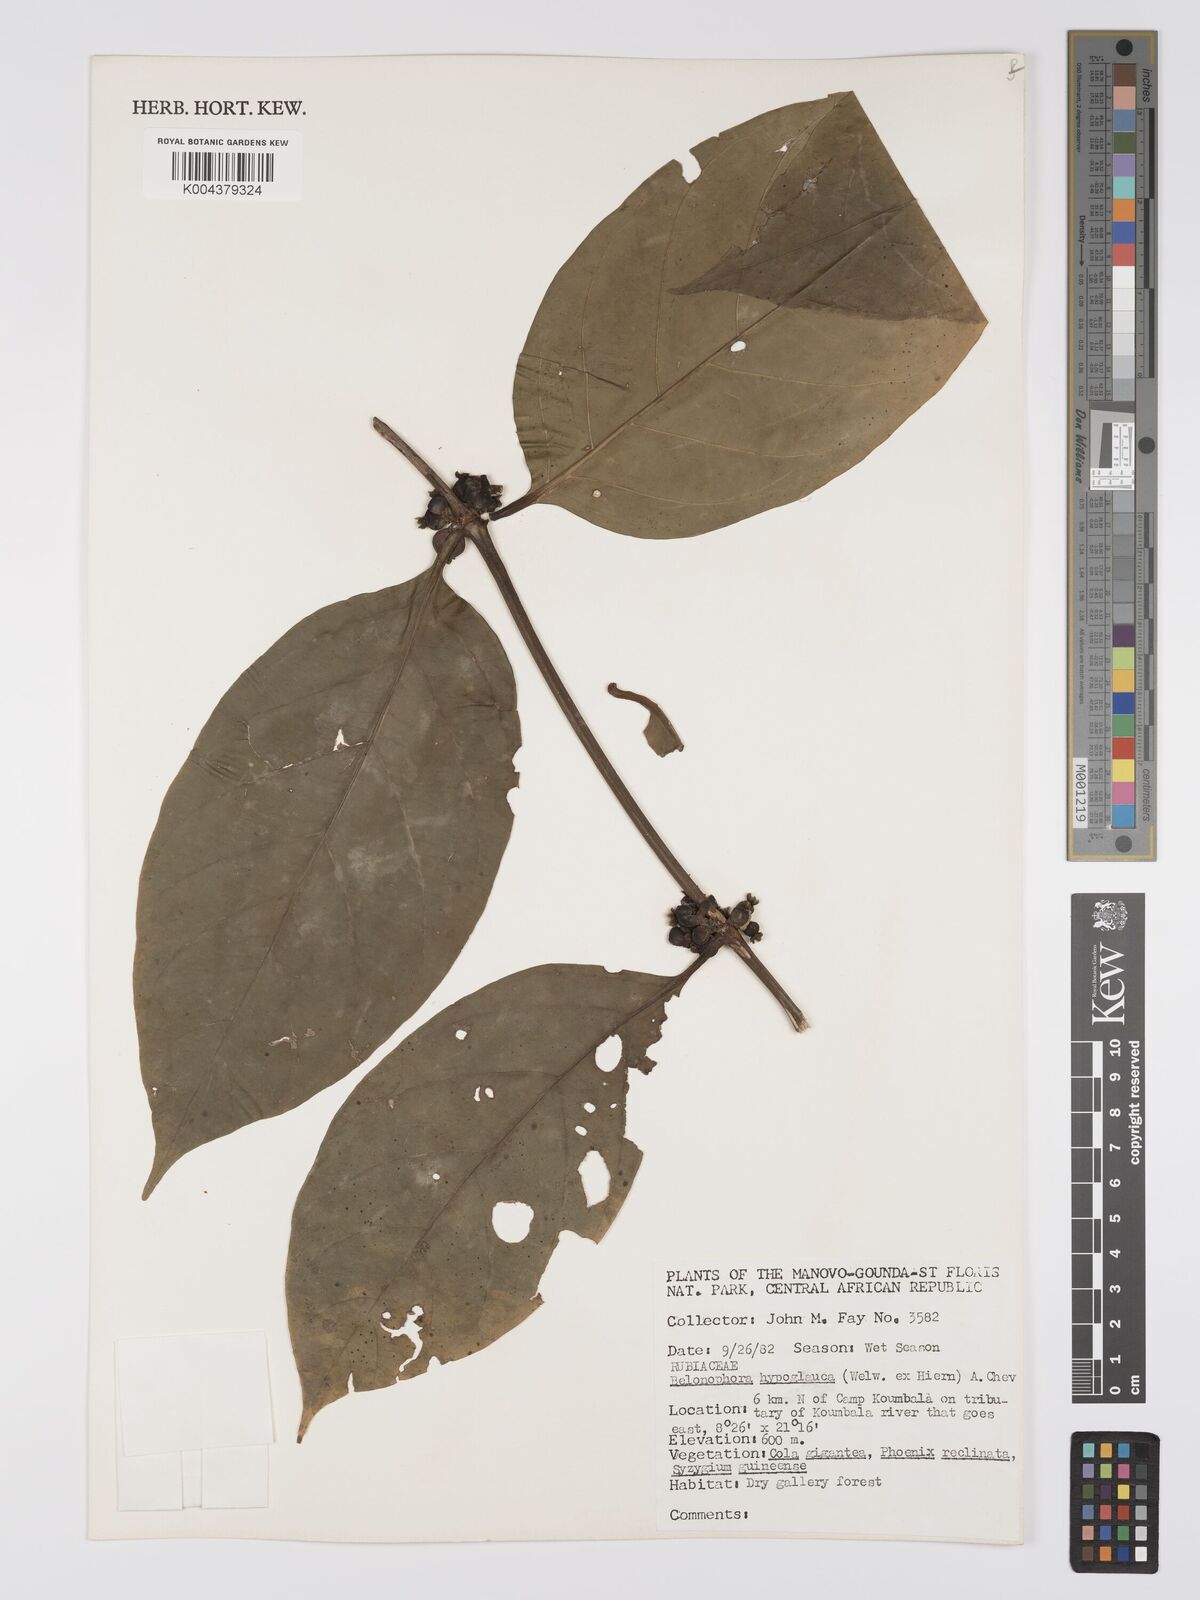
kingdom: Plantae
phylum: Tracheophyta
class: Magnoliopsida
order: Gentianales
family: Rubiaceae
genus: Belonophora
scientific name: Belonophora coffeoides
